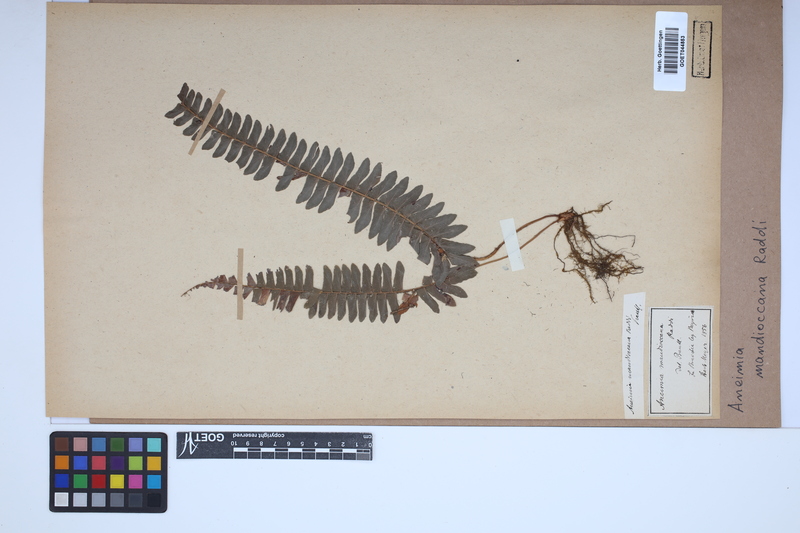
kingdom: Plantae
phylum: Tracheophyta
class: Polypodiopsida
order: Schizaeales
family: Anemiaceae
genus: Anemia
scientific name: Anemia mandiocana
